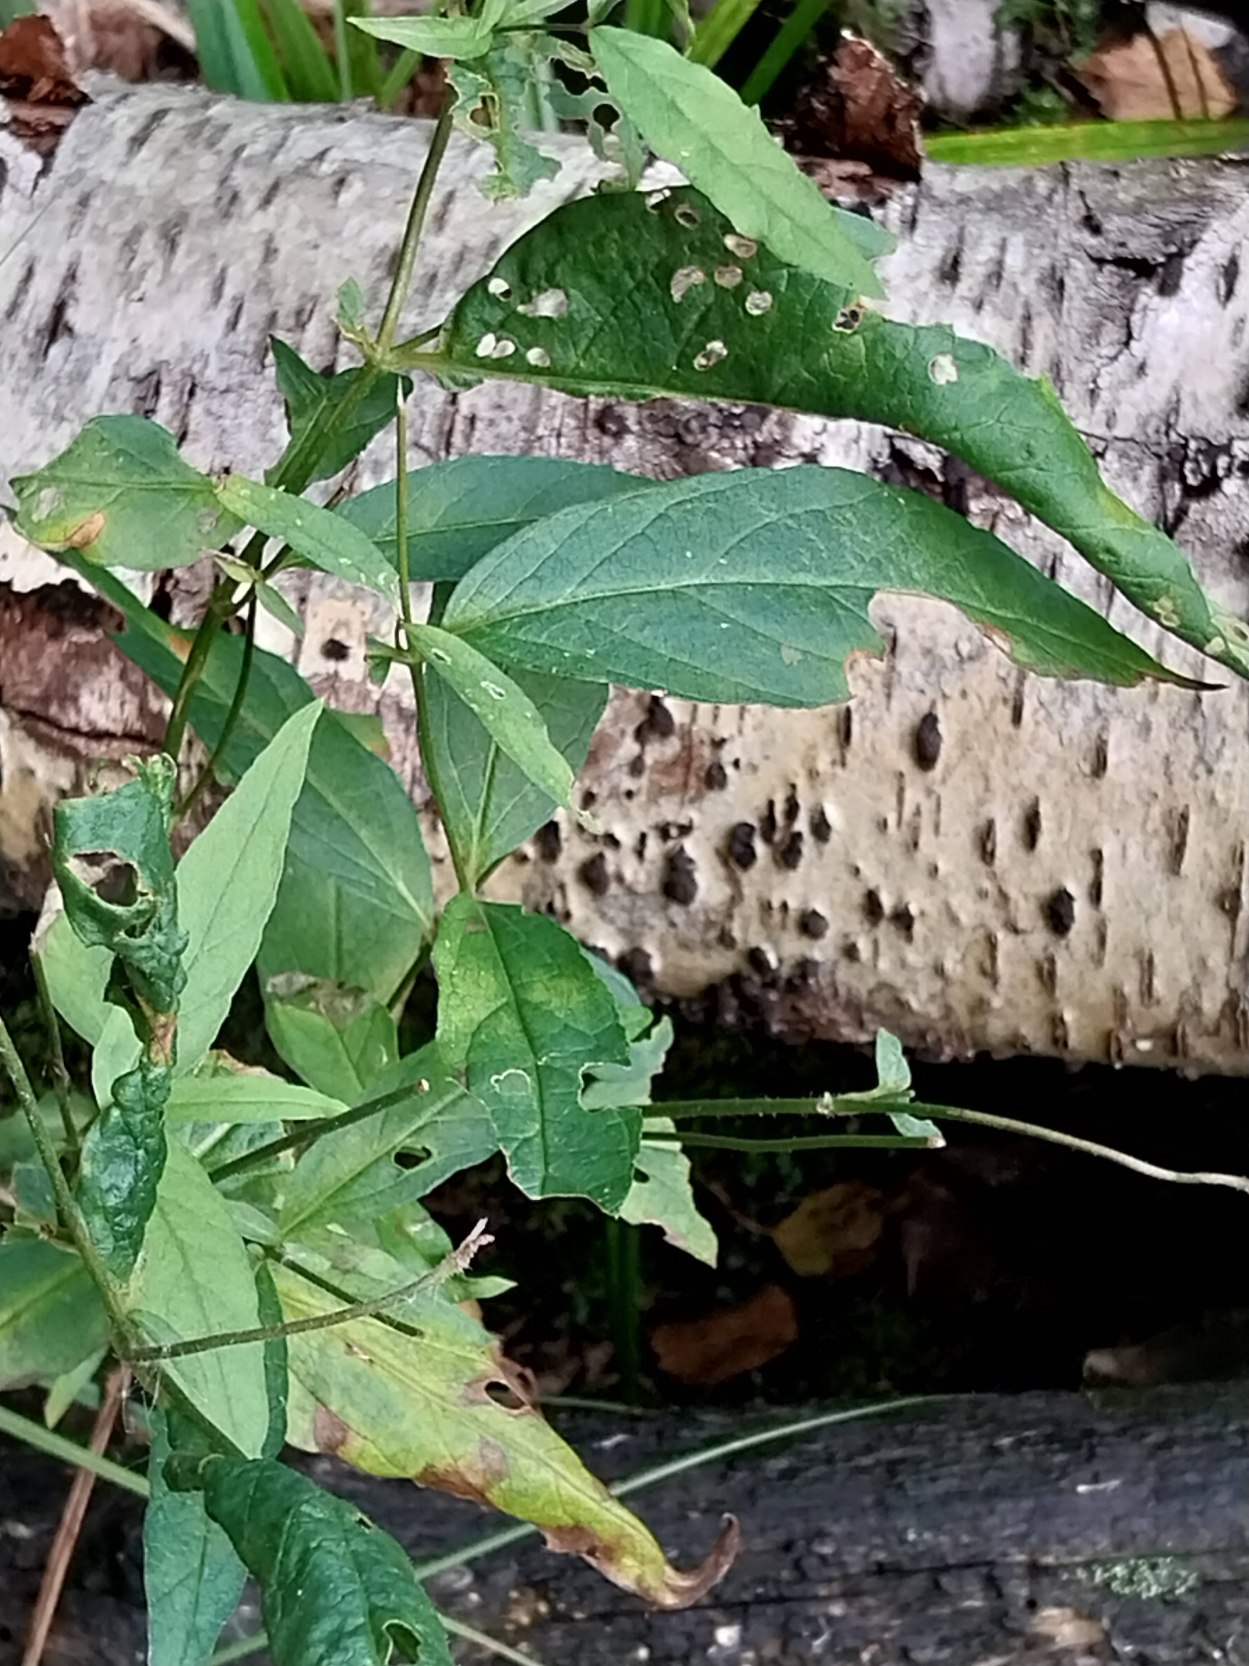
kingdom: Plantae
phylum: Tracheophyta
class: Magnoliopsida
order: Ericales
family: Primulaceae
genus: Lysimachia
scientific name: Lysimachia vulgaris
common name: Almindelig fredløs
